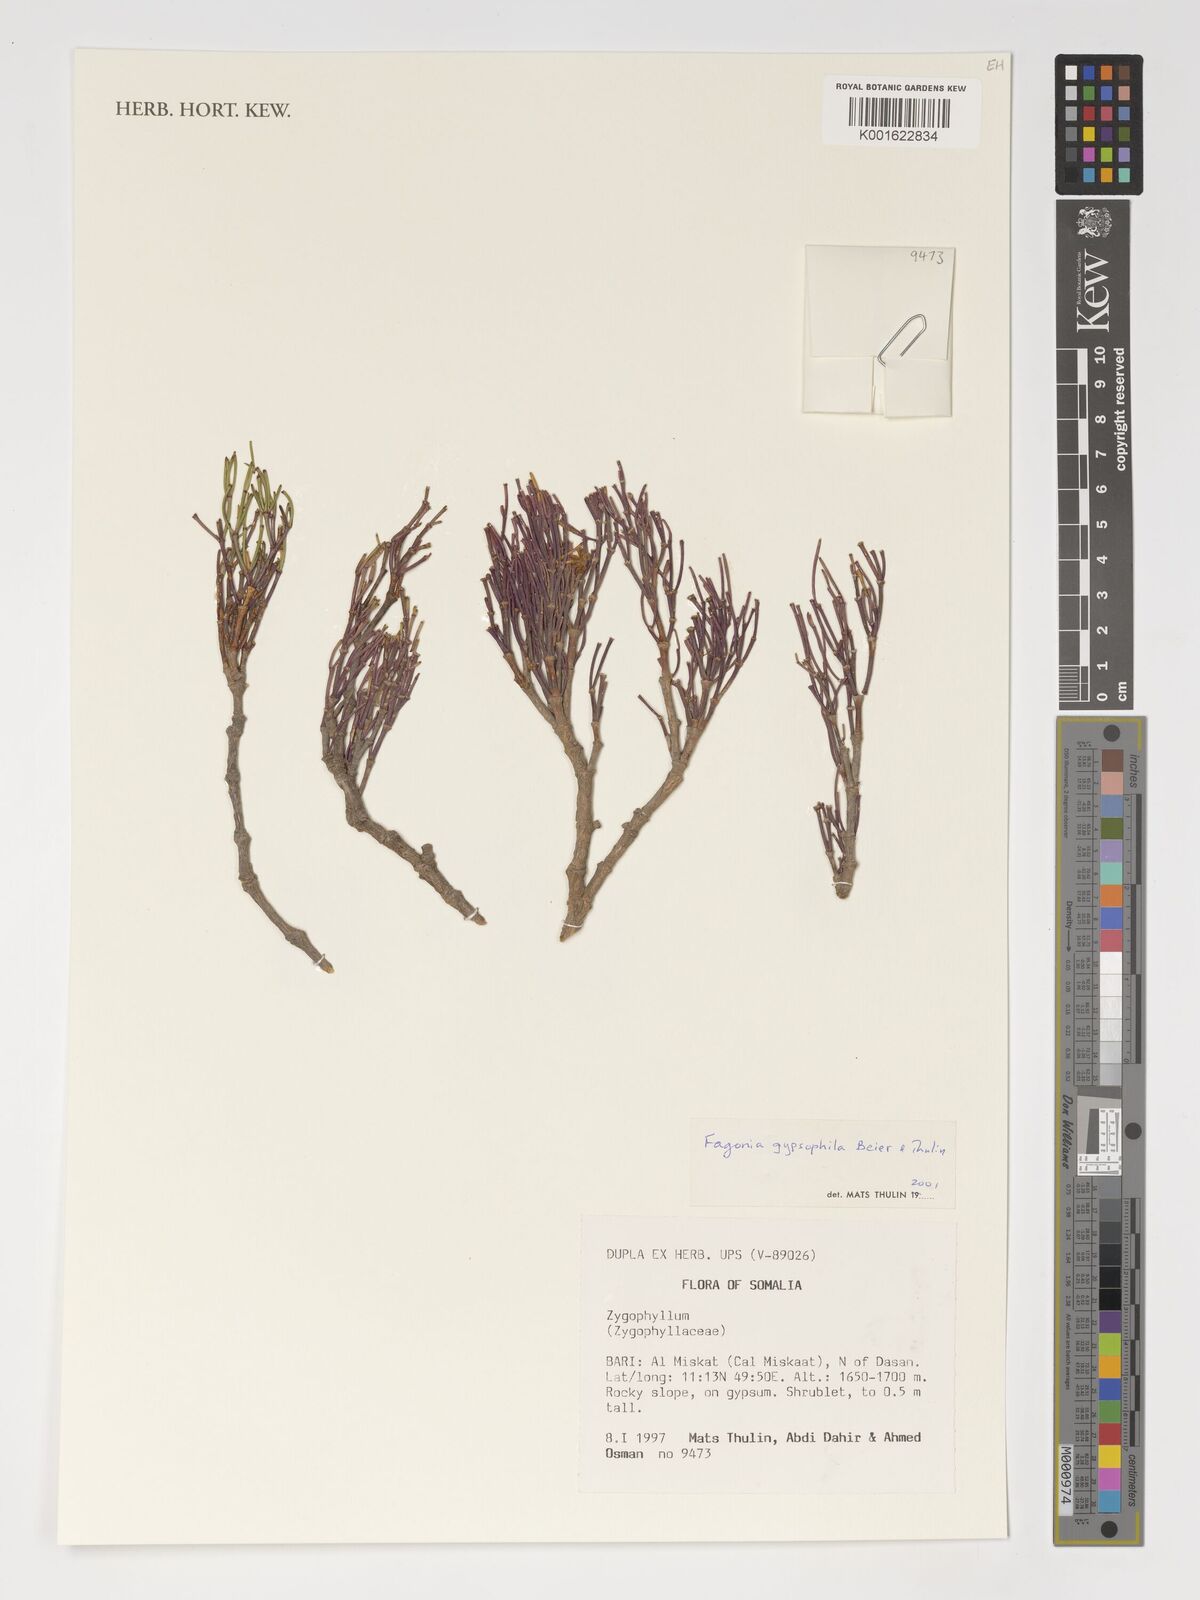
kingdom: Plantae
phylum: Tracheophyta
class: Magnoliopsida
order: Zygophyllales
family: Zygophyllaceae
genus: Fagonia
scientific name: Fagonia gypsophila
